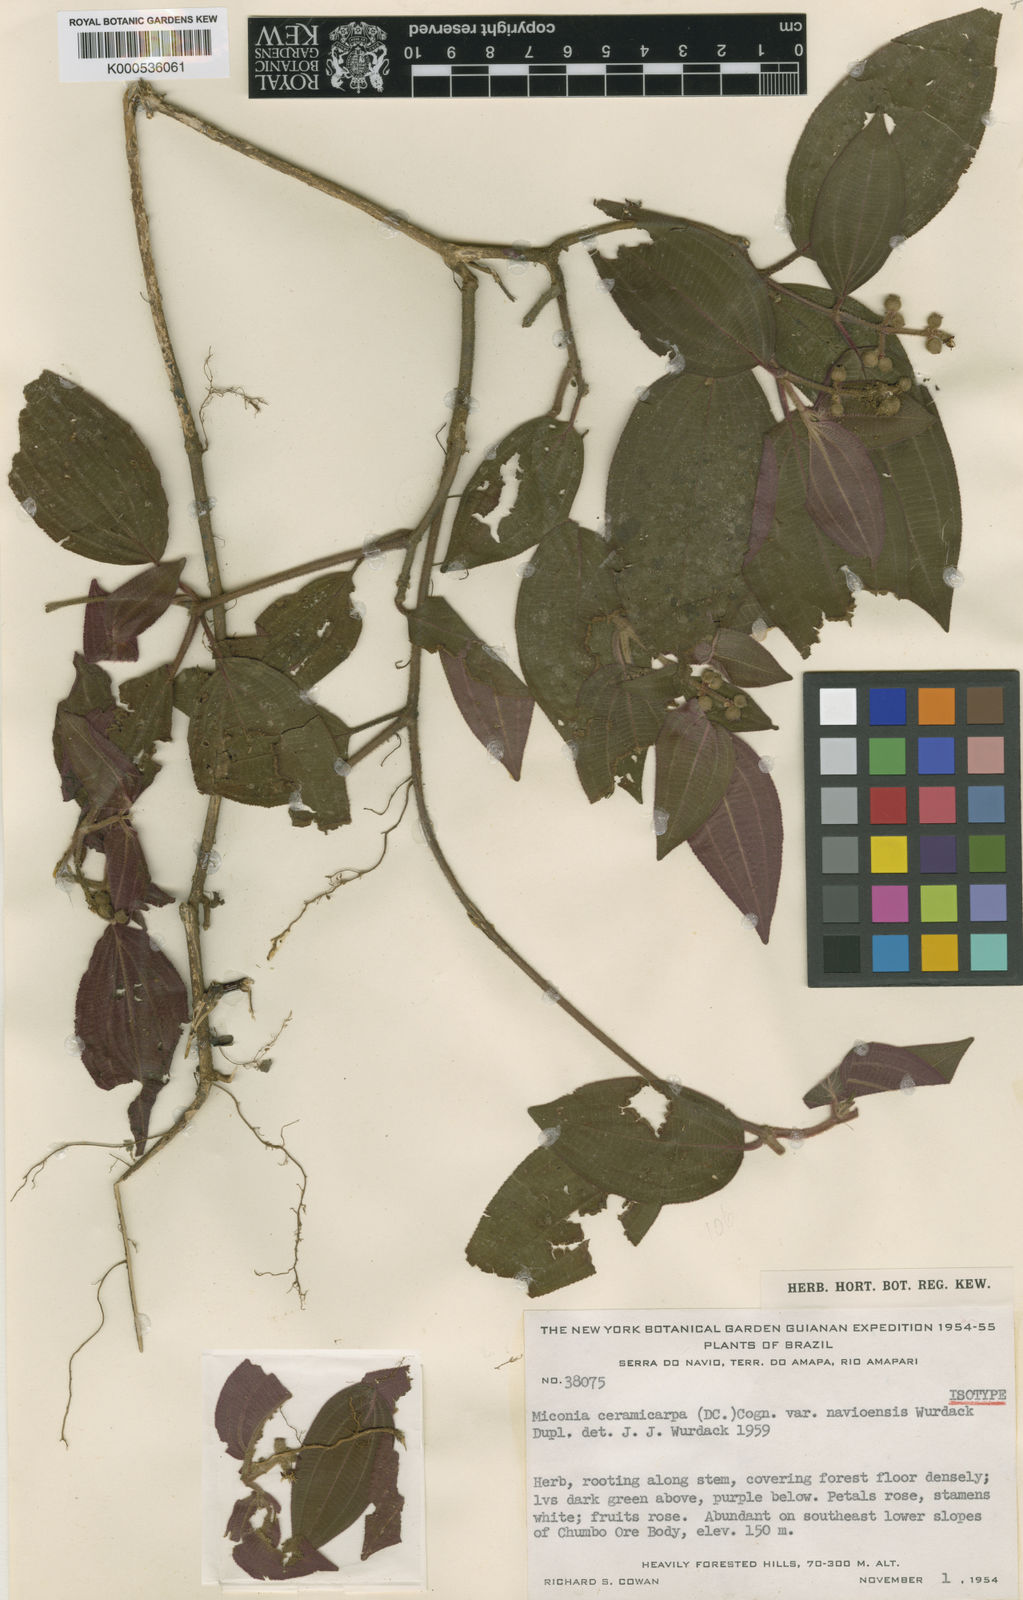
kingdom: Plantae
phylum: Tracheophyta
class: Magnoliopsida
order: Myrtales
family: Melastomataceae
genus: Miconia
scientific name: Miconia ceramicarpa
